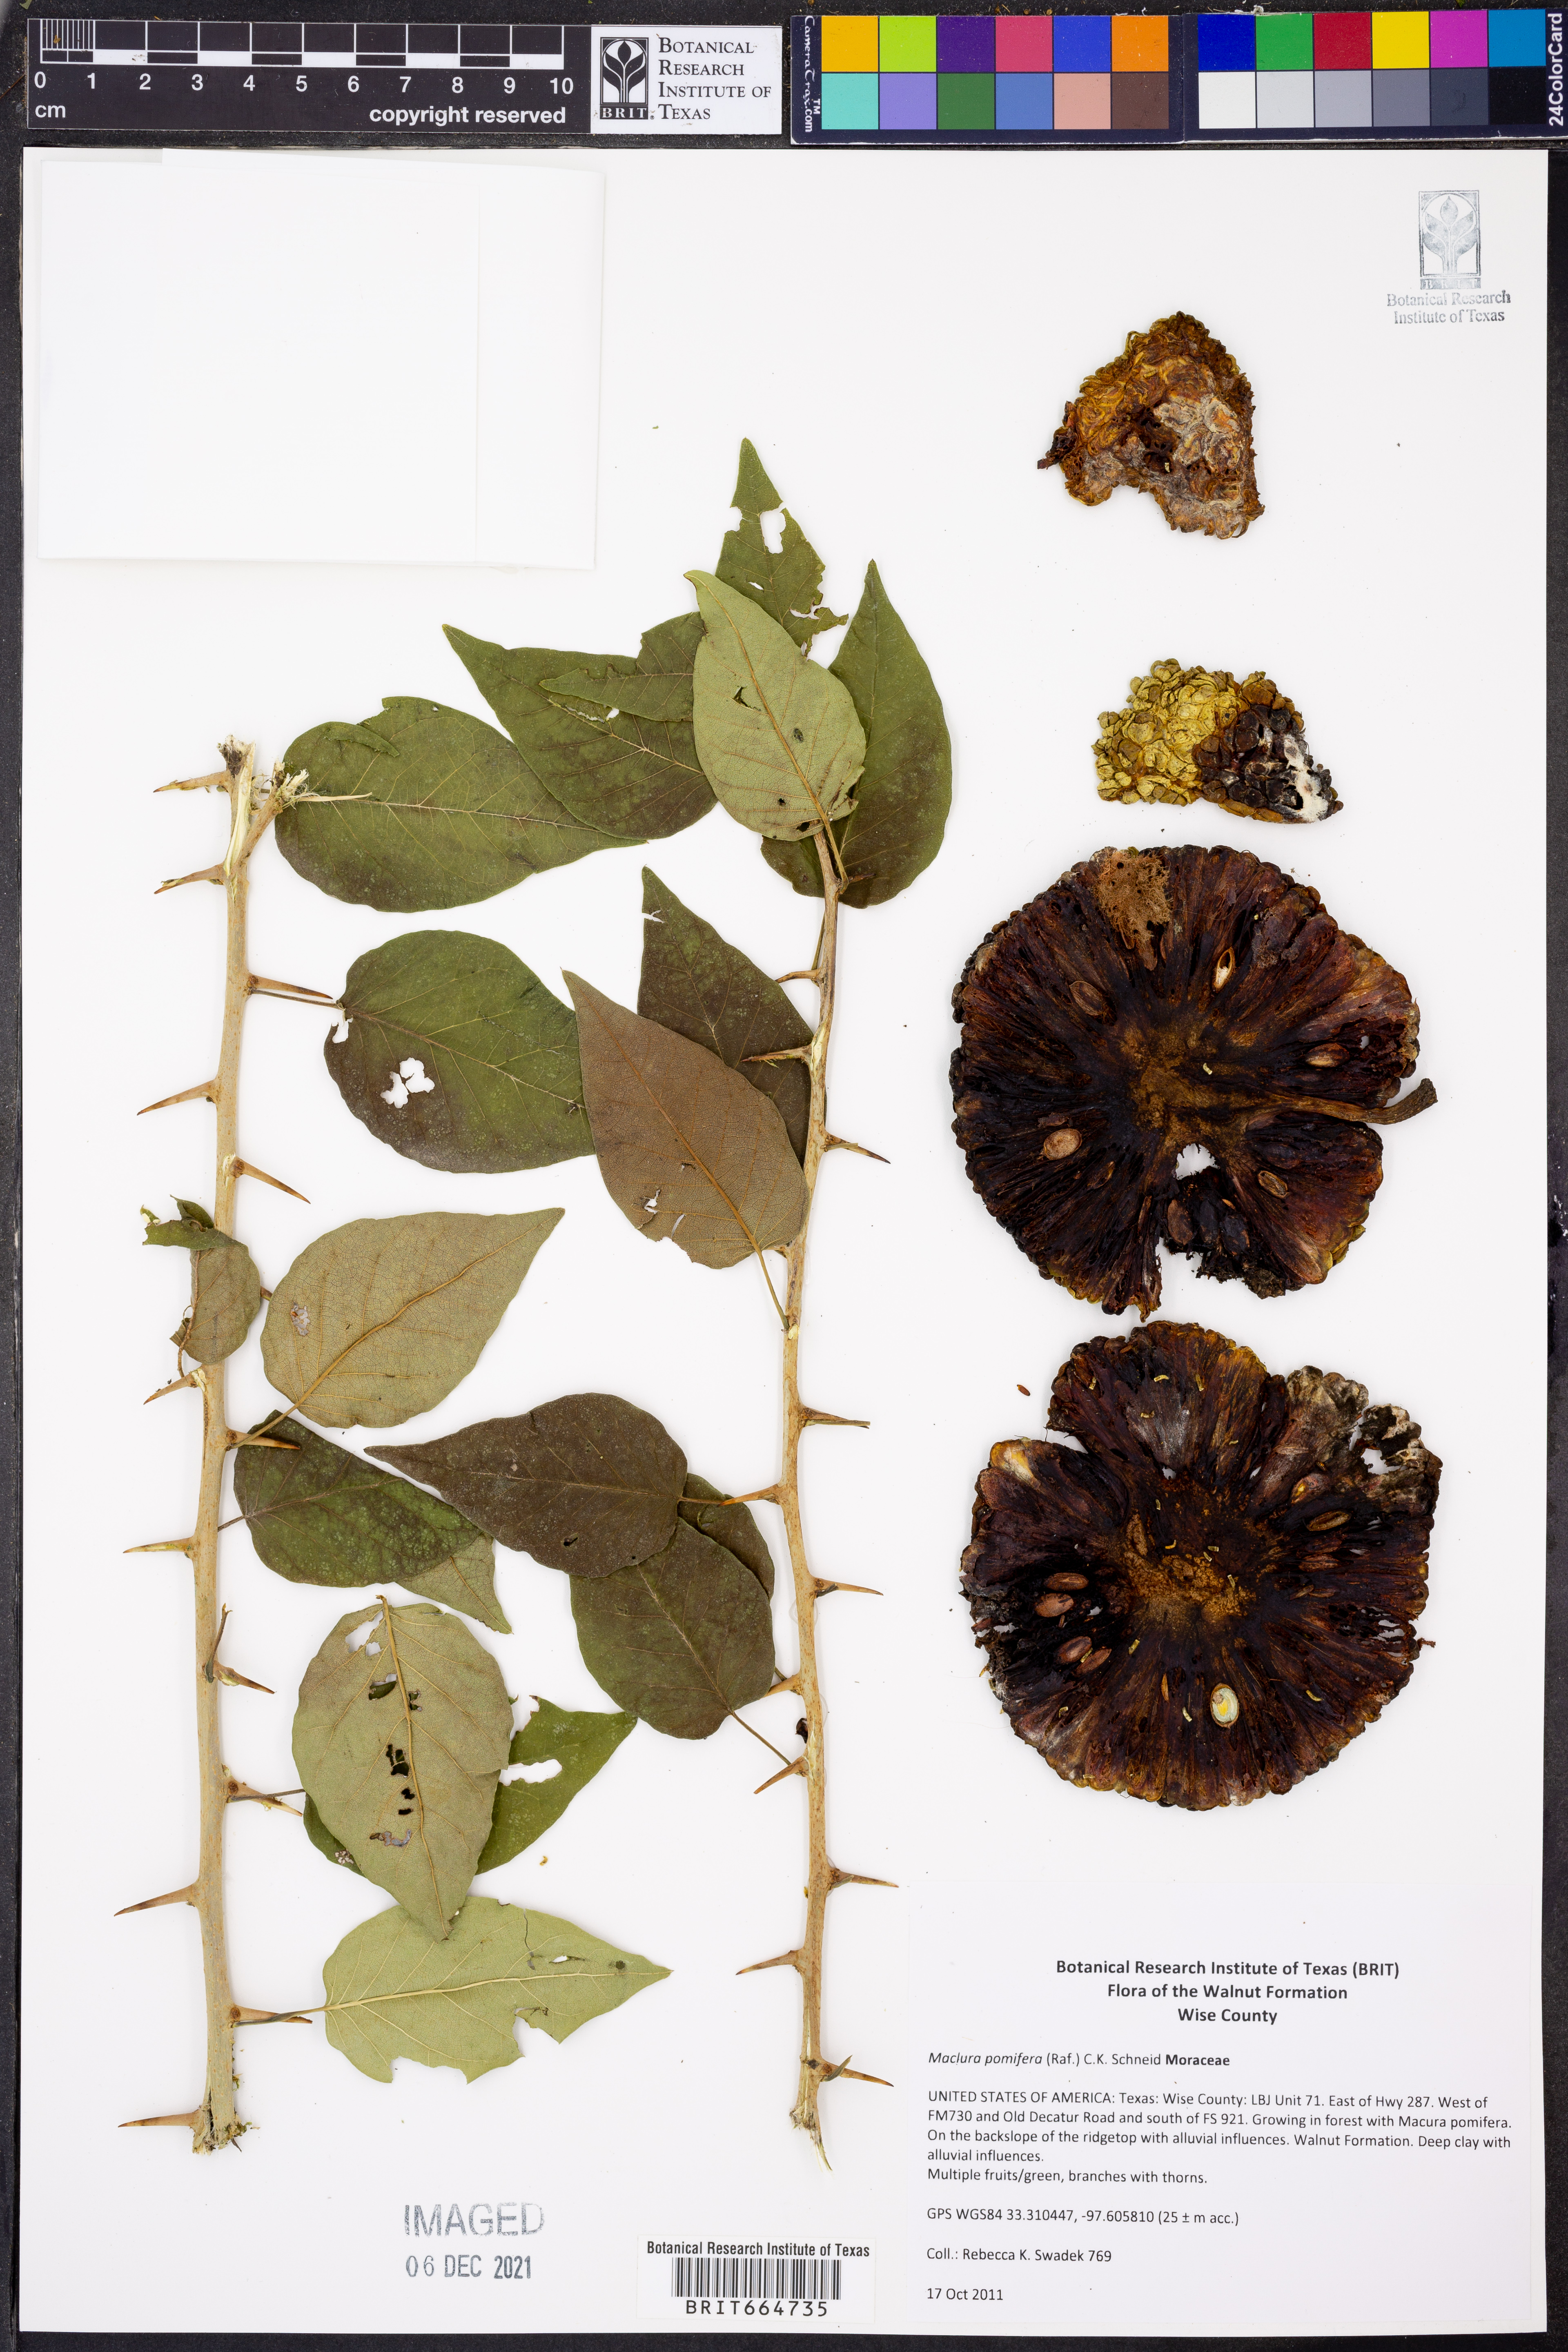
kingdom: Plantae
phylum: Tracheophyta
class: Magnoliopsida
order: Rosales
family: Moraceae
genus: Maclura
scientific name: Maclura pomifera
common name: Osage-orange
